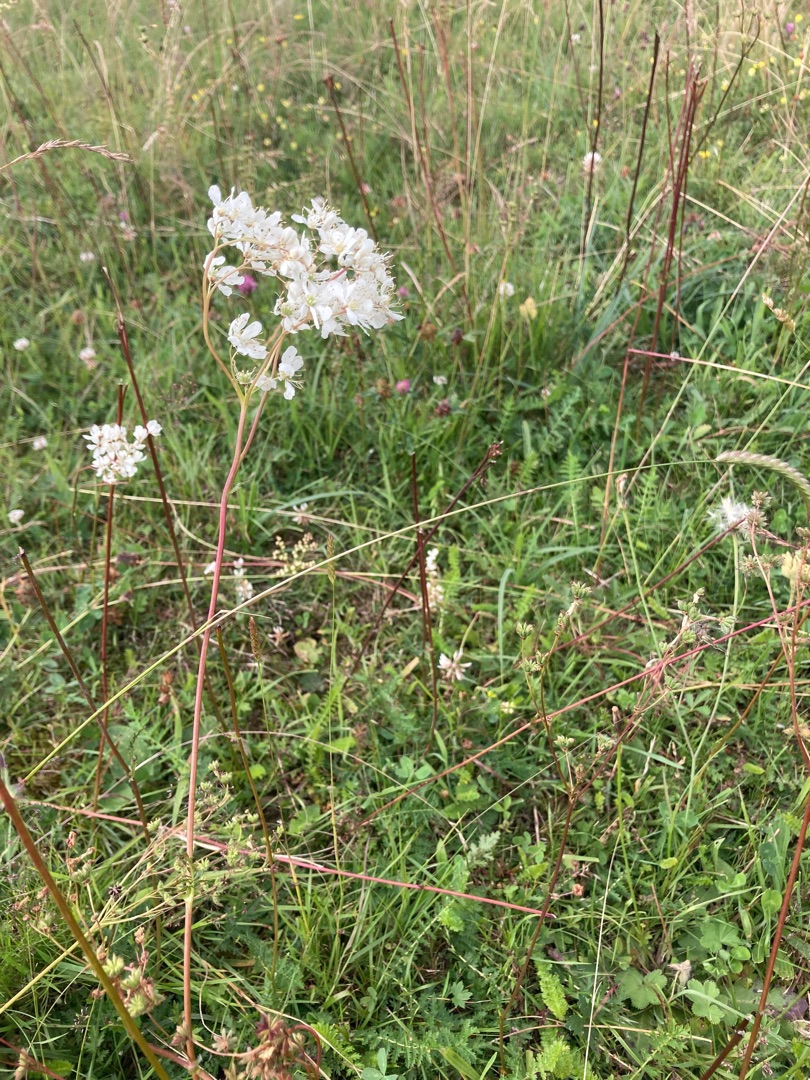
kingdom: Plantae
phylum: Tracheophyta
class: Magnoliopsida
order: Rosales
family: Rosaceae
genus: Filipendula
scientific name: Filipendula vulgaris
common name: Knoldet mjødurt
